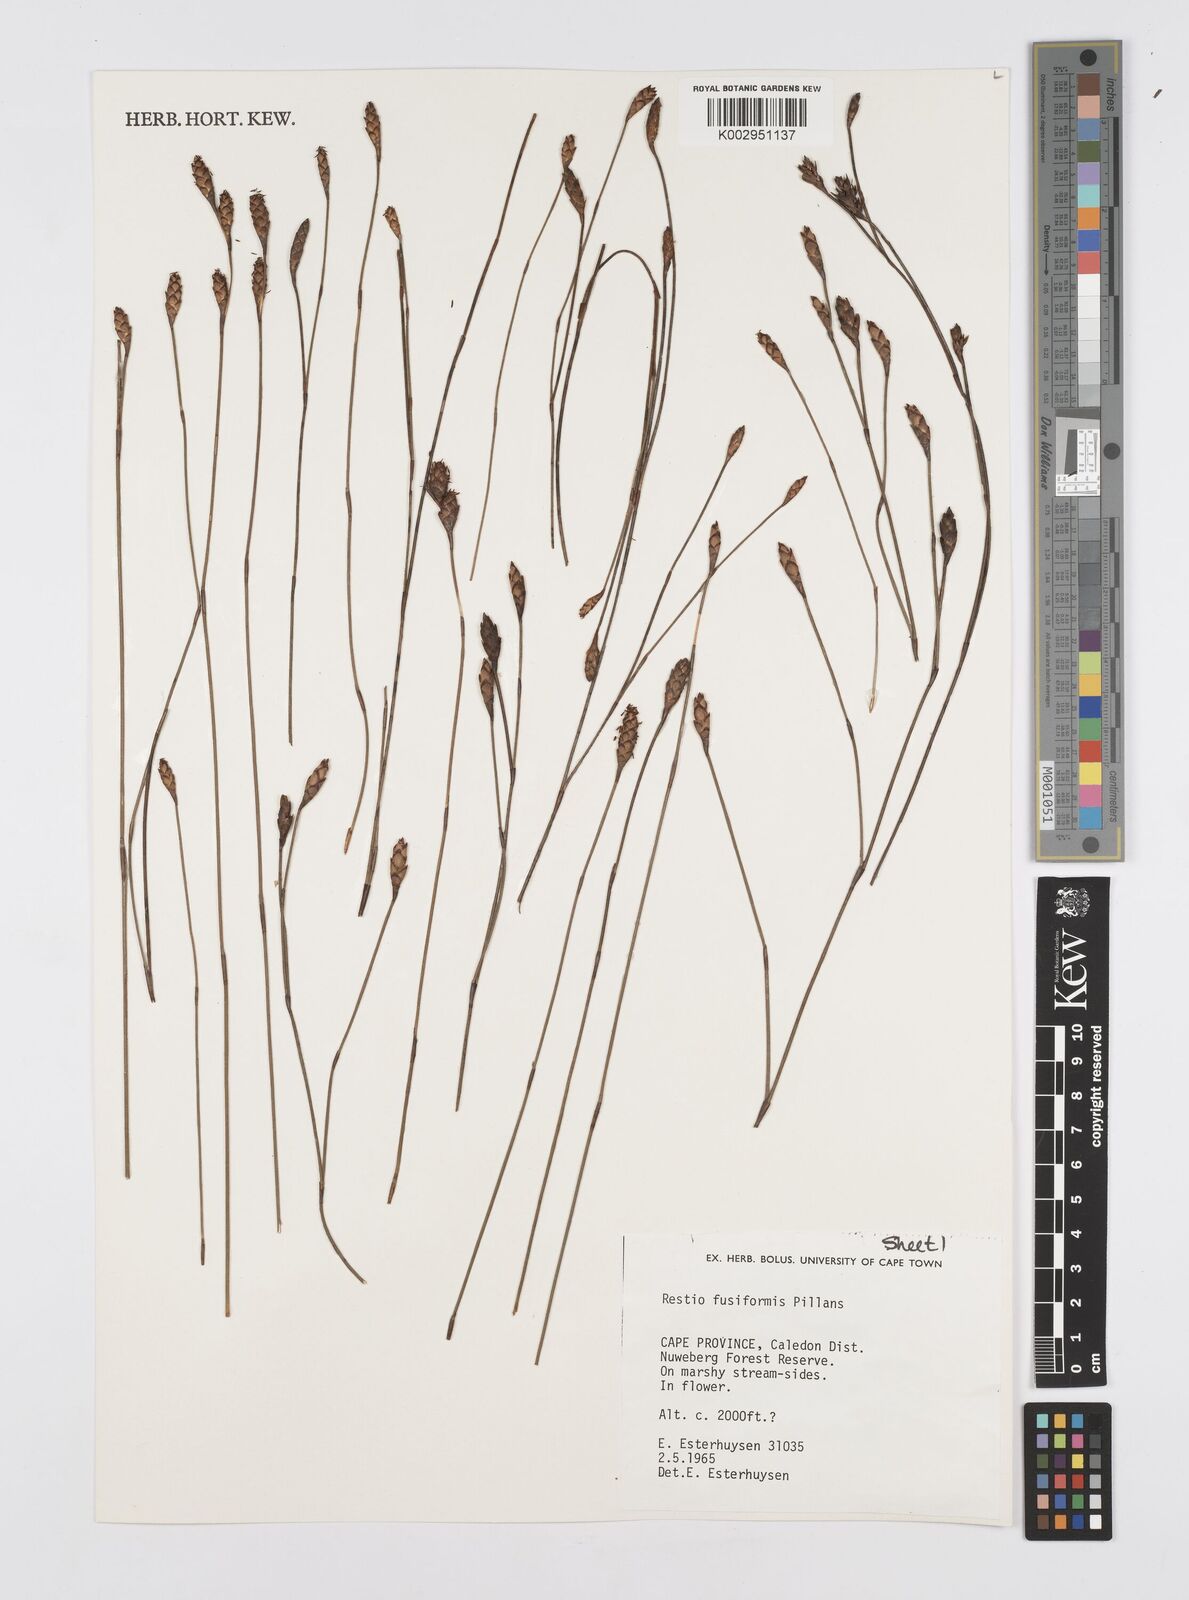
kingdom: Plantae
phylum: Tracheophyta
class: Liliopsida
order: Poales
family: Restionaceae
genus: Restio
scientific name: Restio fusiformis
